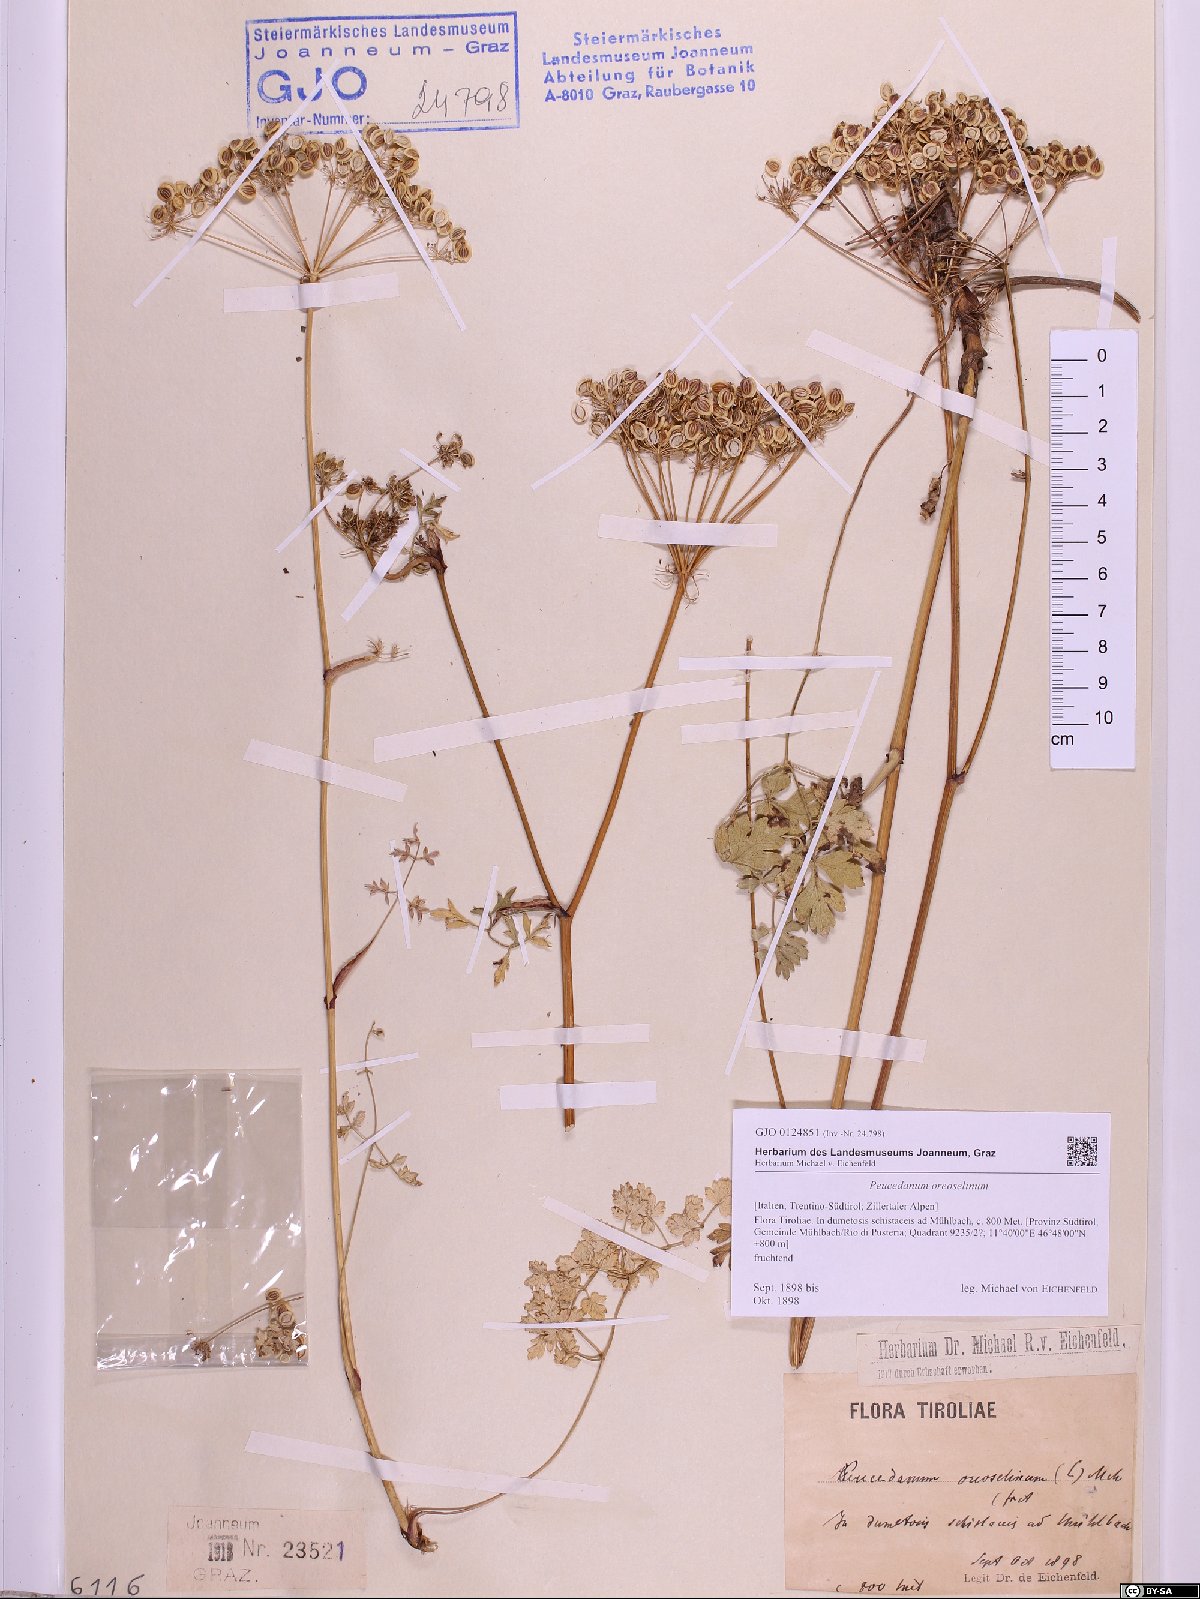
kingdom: Plantae
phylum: Tracheophyta
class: Magnoliopsida
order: Apiales
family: Apiaceae
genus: Oreoselinum
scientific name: Oreoselinum nigrum
